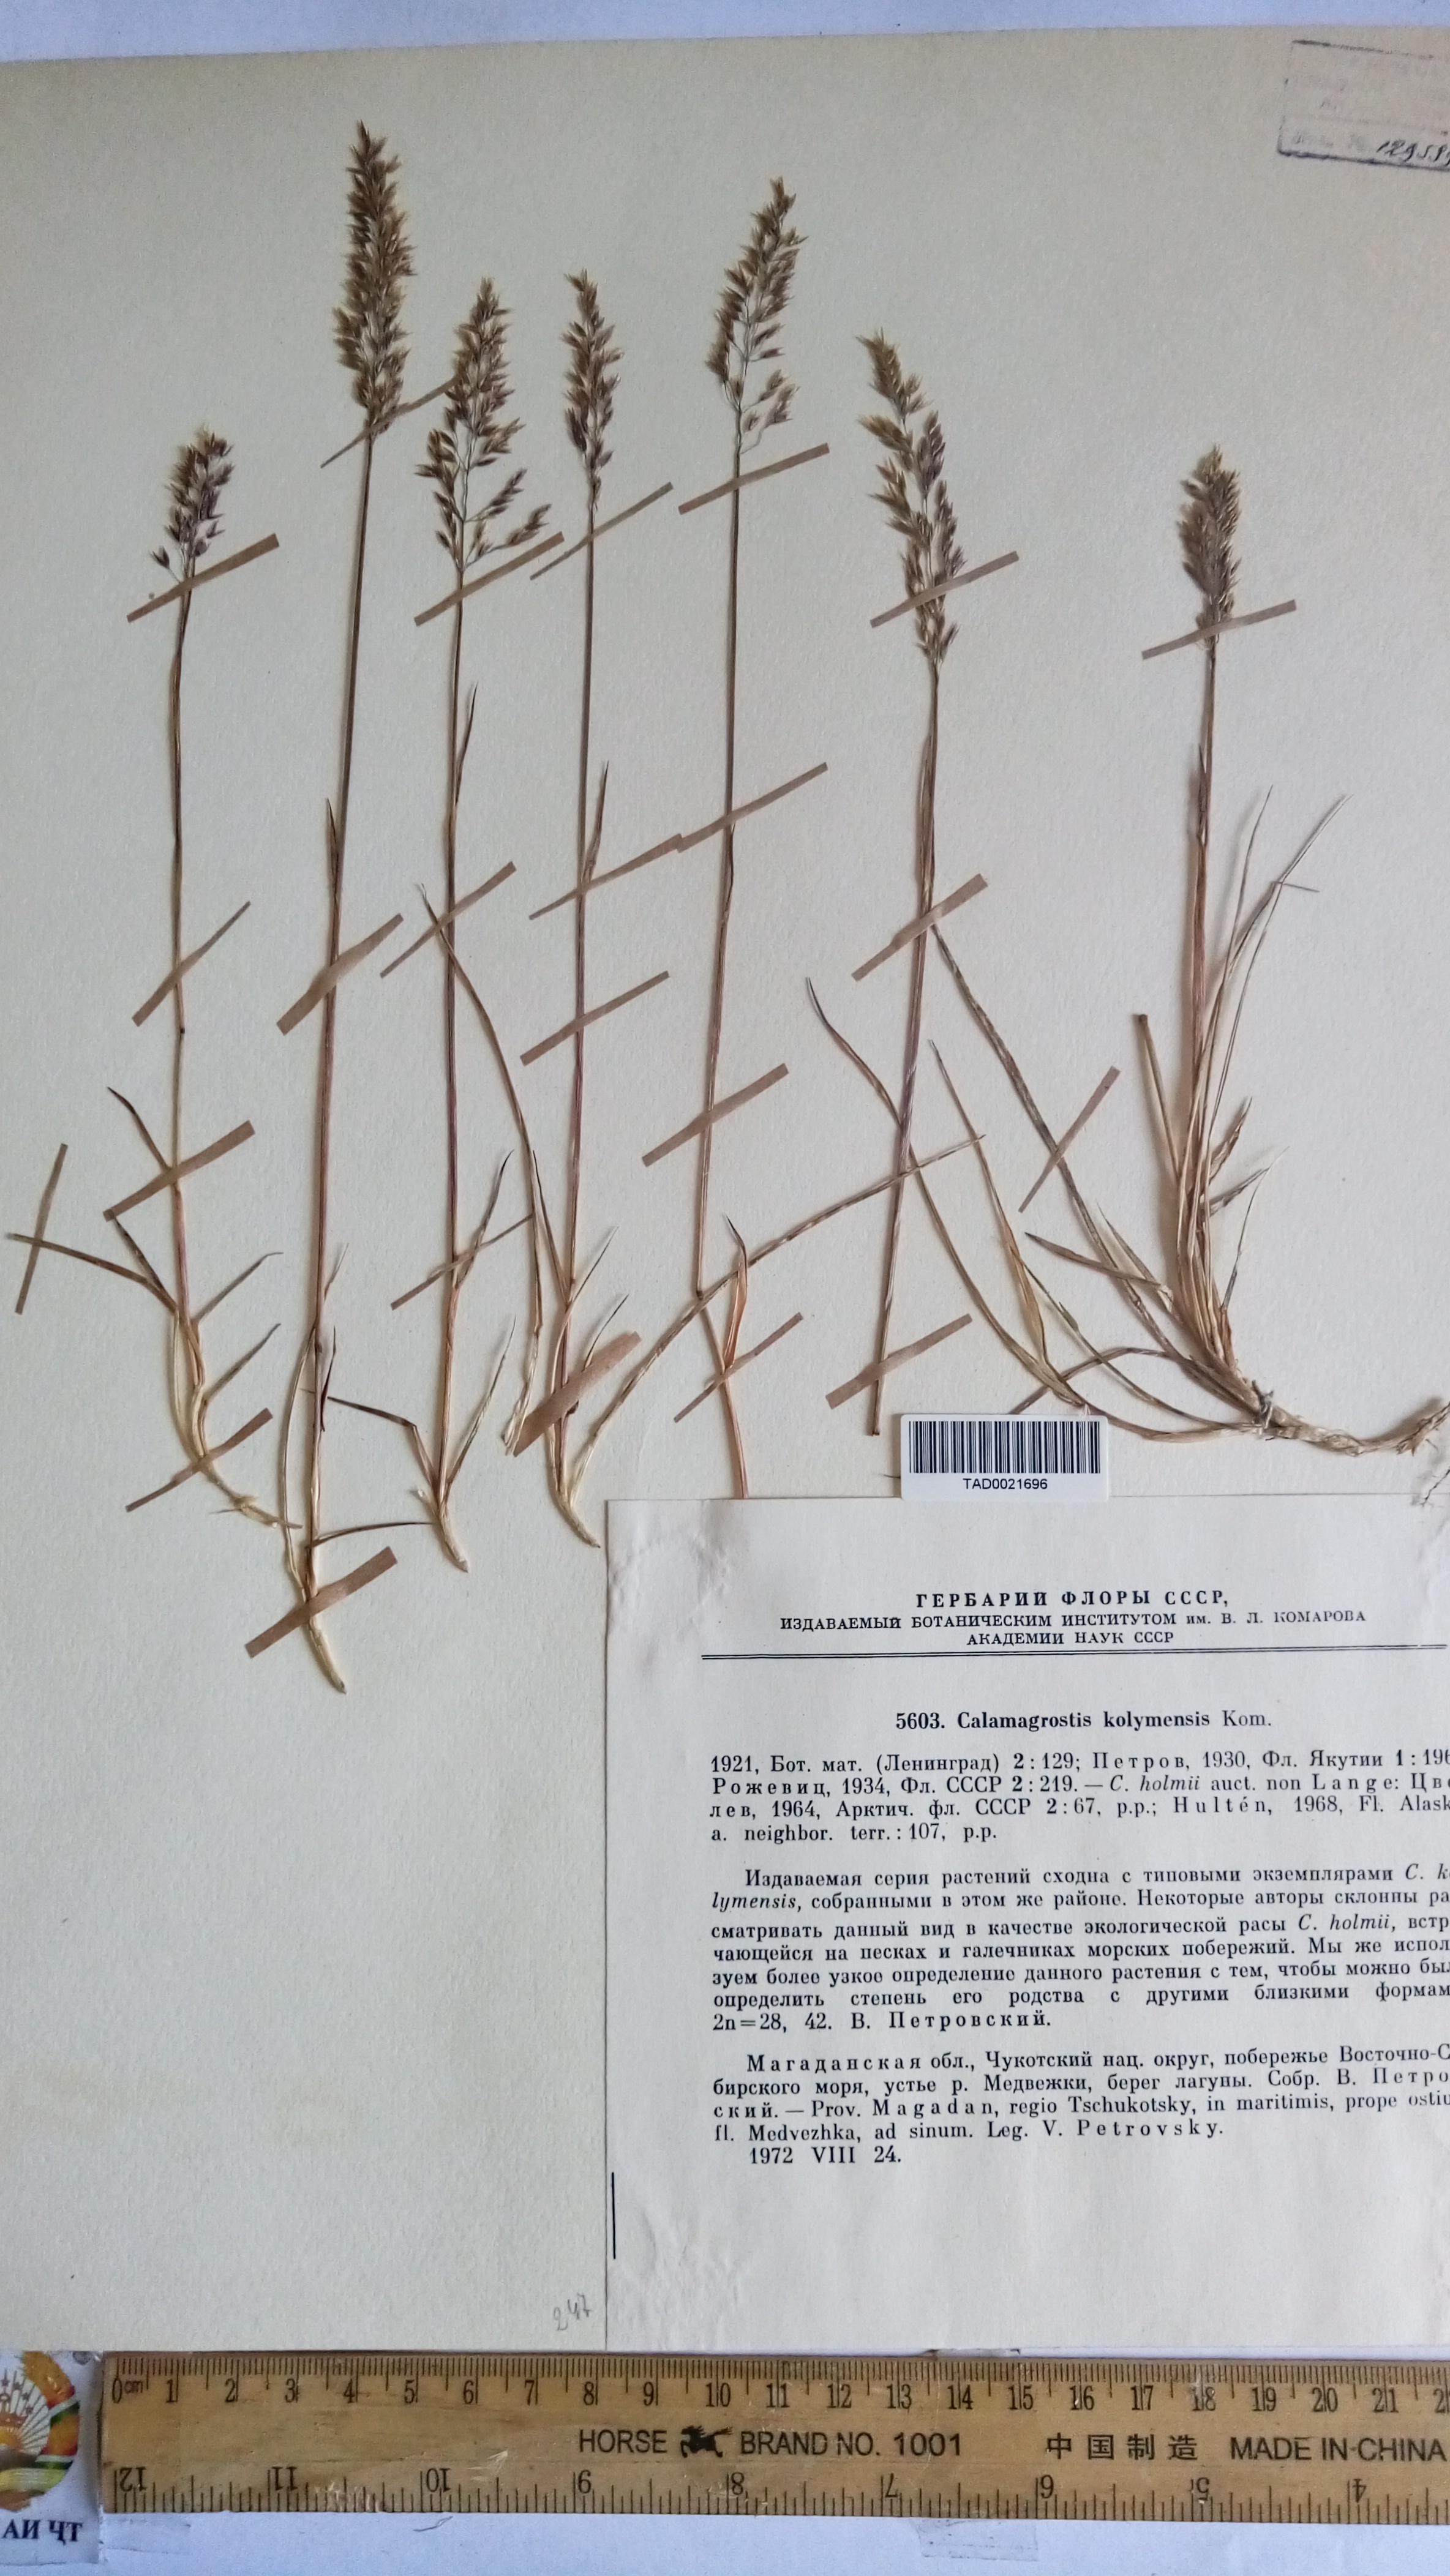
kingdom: Plantae
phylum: Tracheophyta
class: Liliopsida
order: Poales
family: Poaceae
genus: Calamagrostis
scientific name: Calamagrostis
